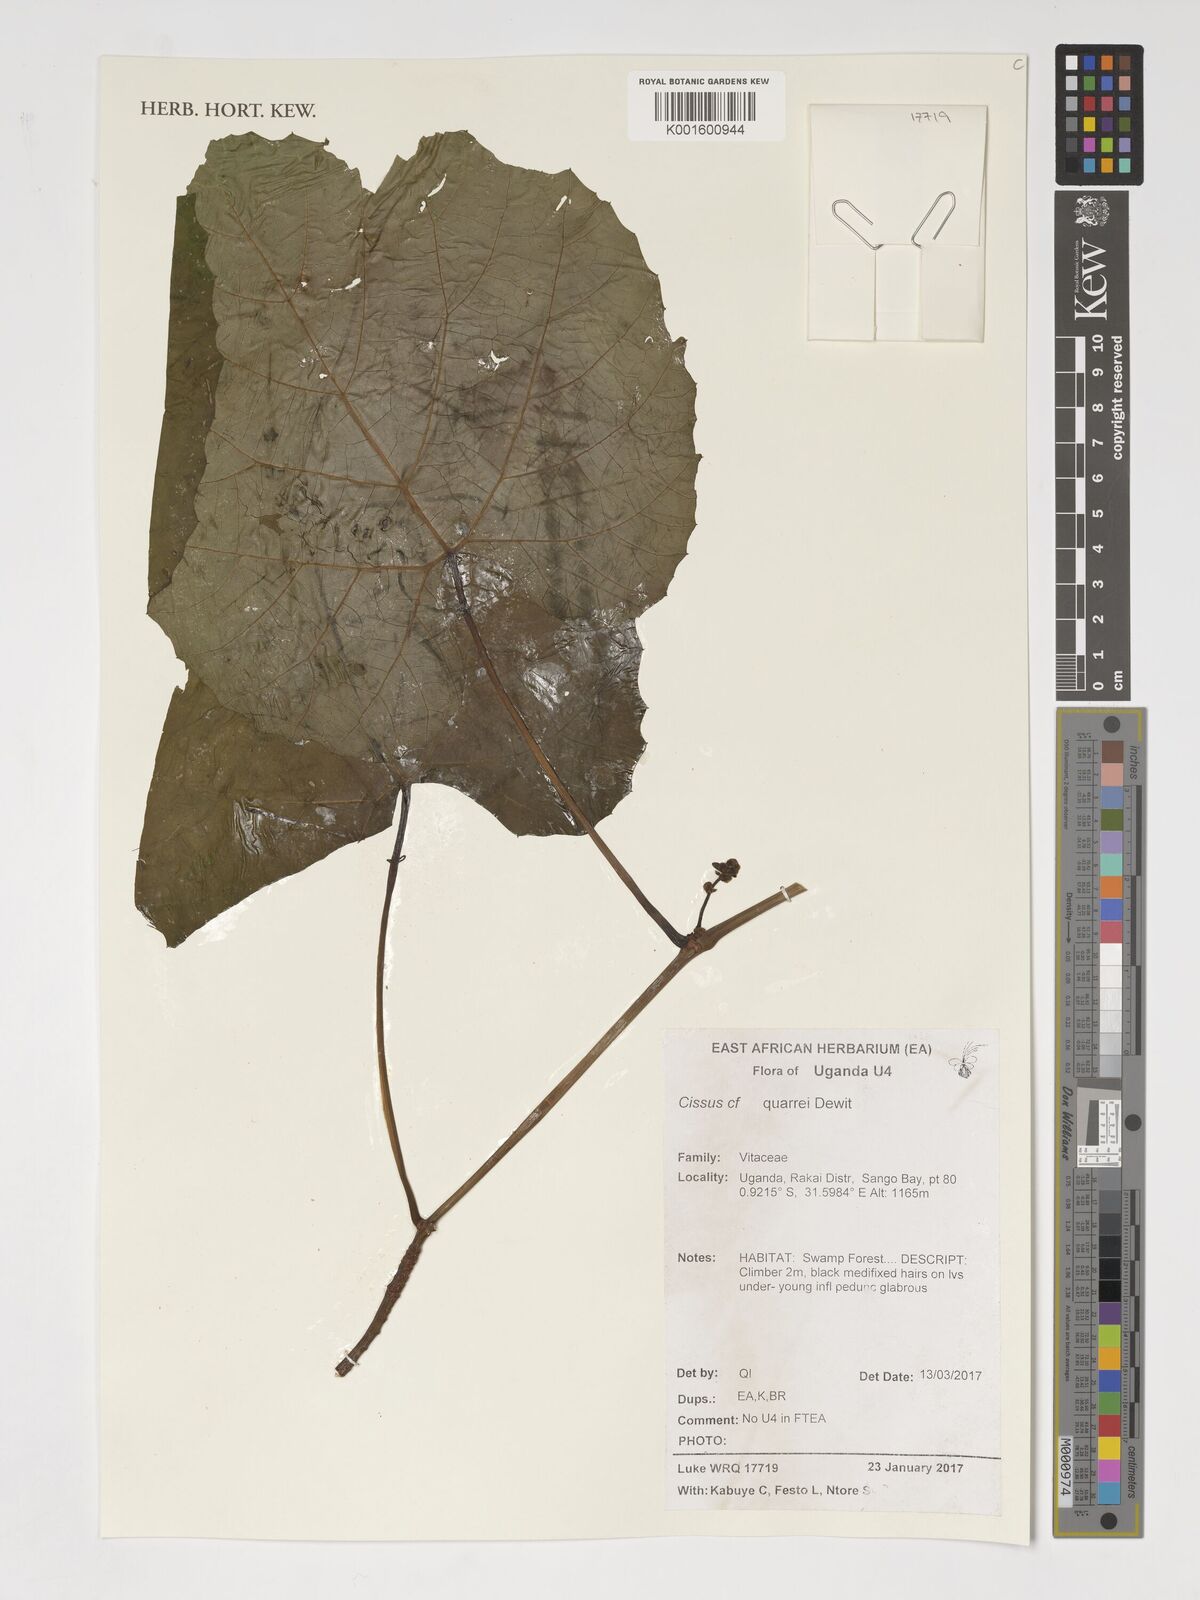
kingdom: Plantae
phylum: Tracheophyta
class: Magnoliopsida
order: Vitales
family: Vitaceae
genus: Cissus
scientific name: Cissus quarrei
